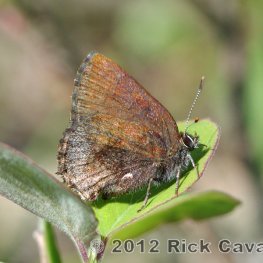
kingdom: Animalia
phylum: Arthropoda
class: Insecta
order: Lepidoptera
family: Lycaenidae
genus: Callophrys
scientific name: Callophrys polios
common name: Hoary Elfin
